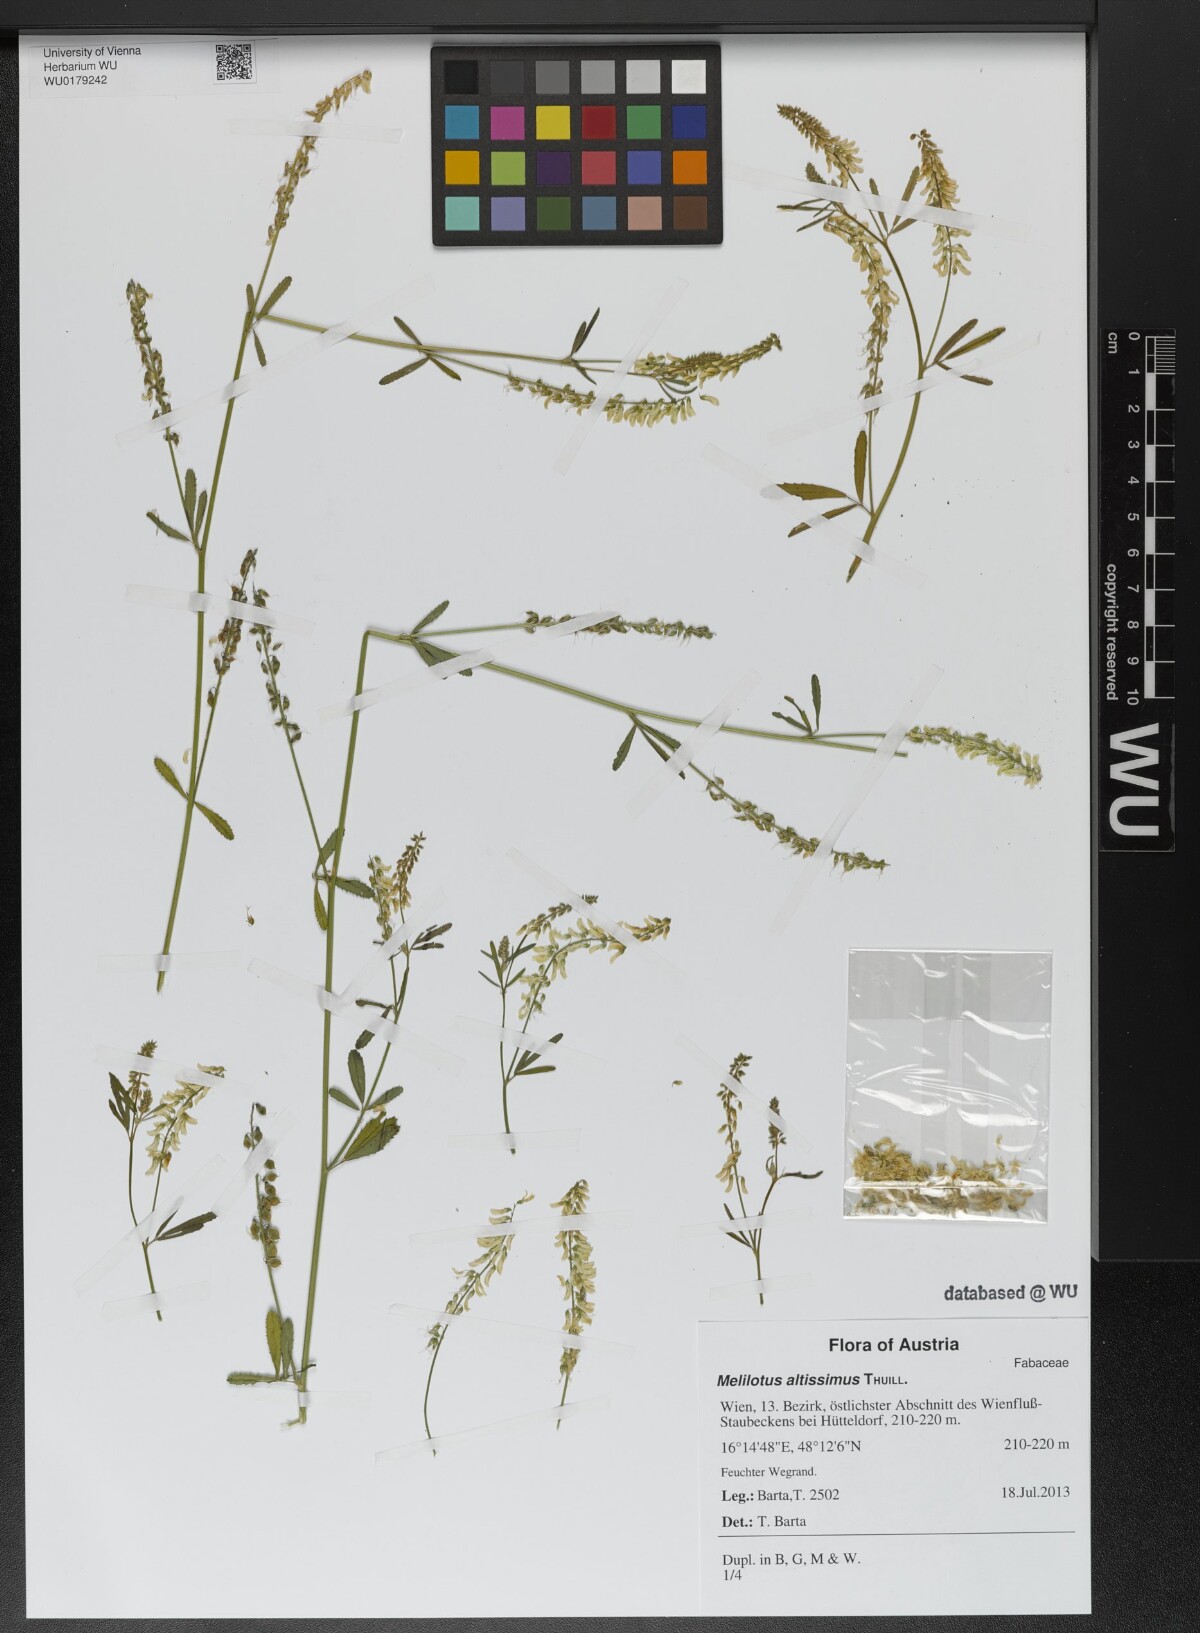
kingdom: Plantae
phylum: Tracheophyta
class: Magnoliopsida
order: Fabales
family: Fabaceae
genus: Melilotus
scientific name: Melilotus altissimus
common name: Tall melilot
